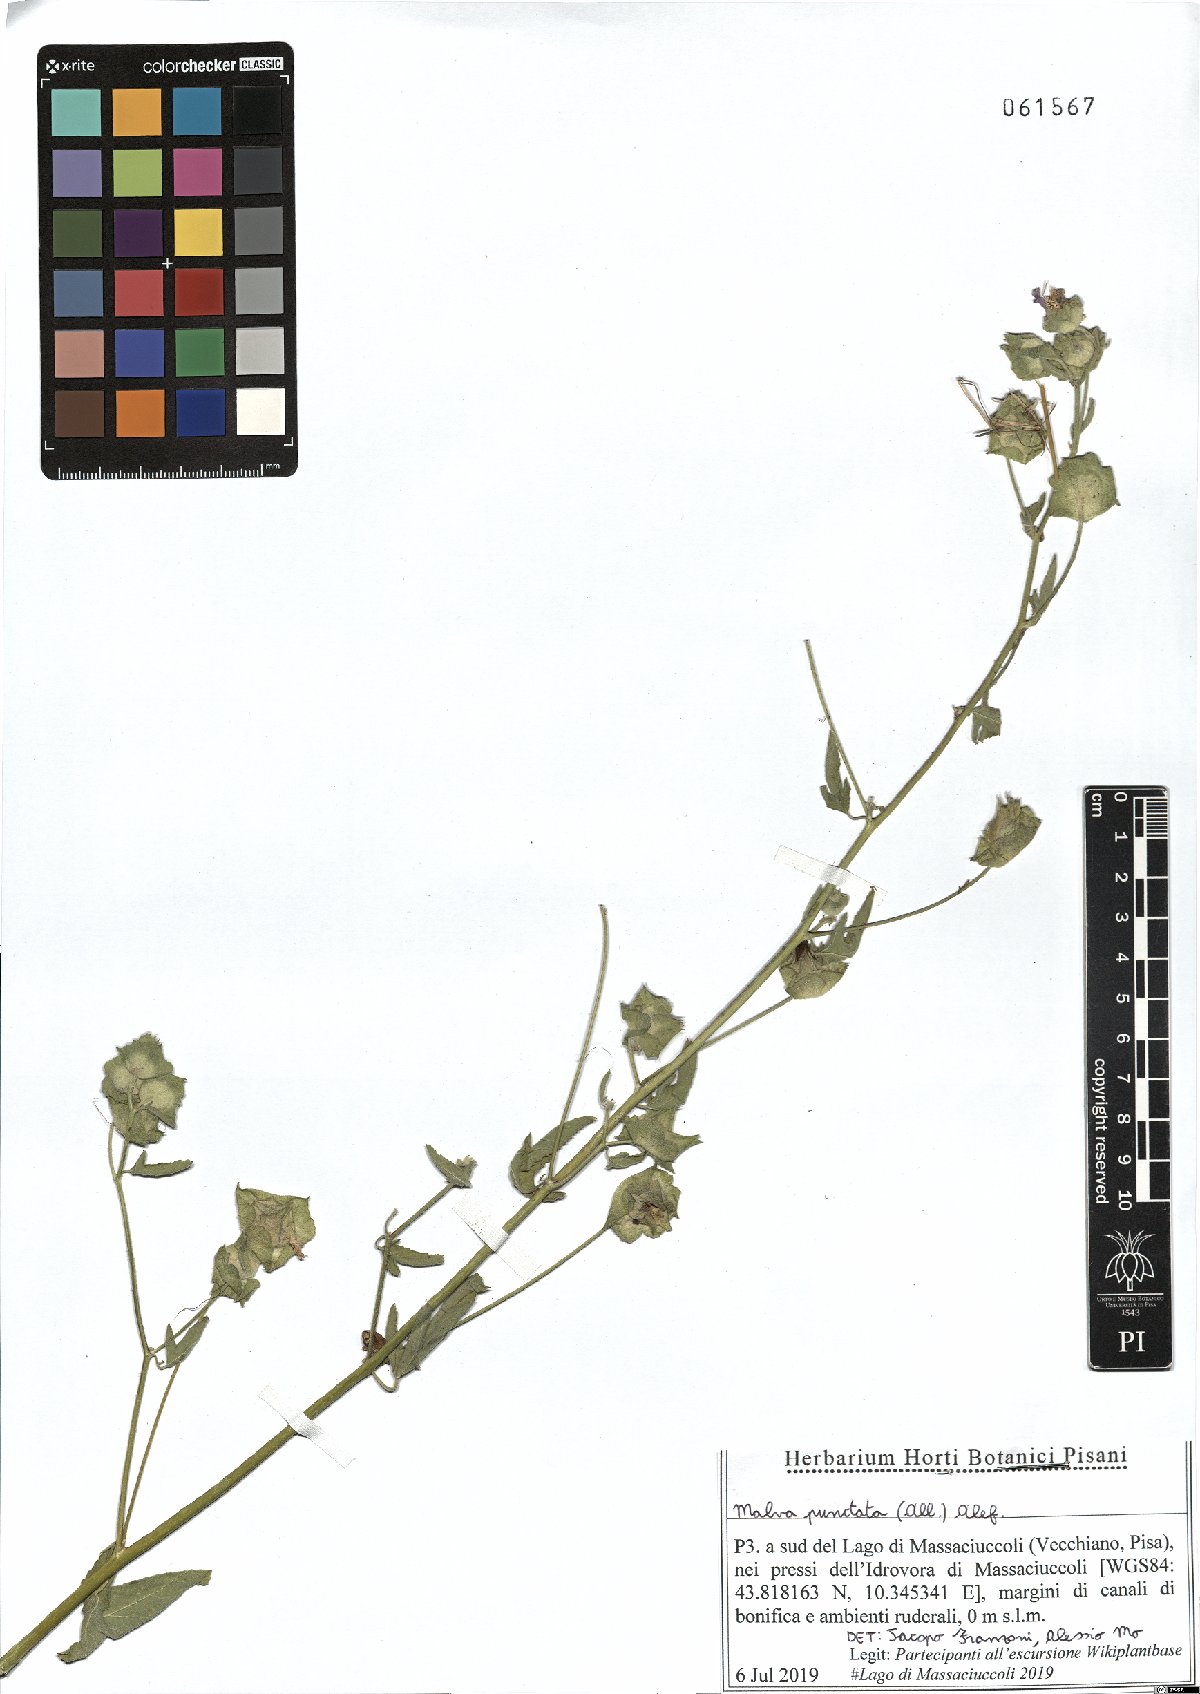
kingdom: Plantae
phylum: Tracheophyta
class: Magnoliopsida
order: Malvales
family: Malvaceae
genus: Malva
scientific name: Malva punctata
